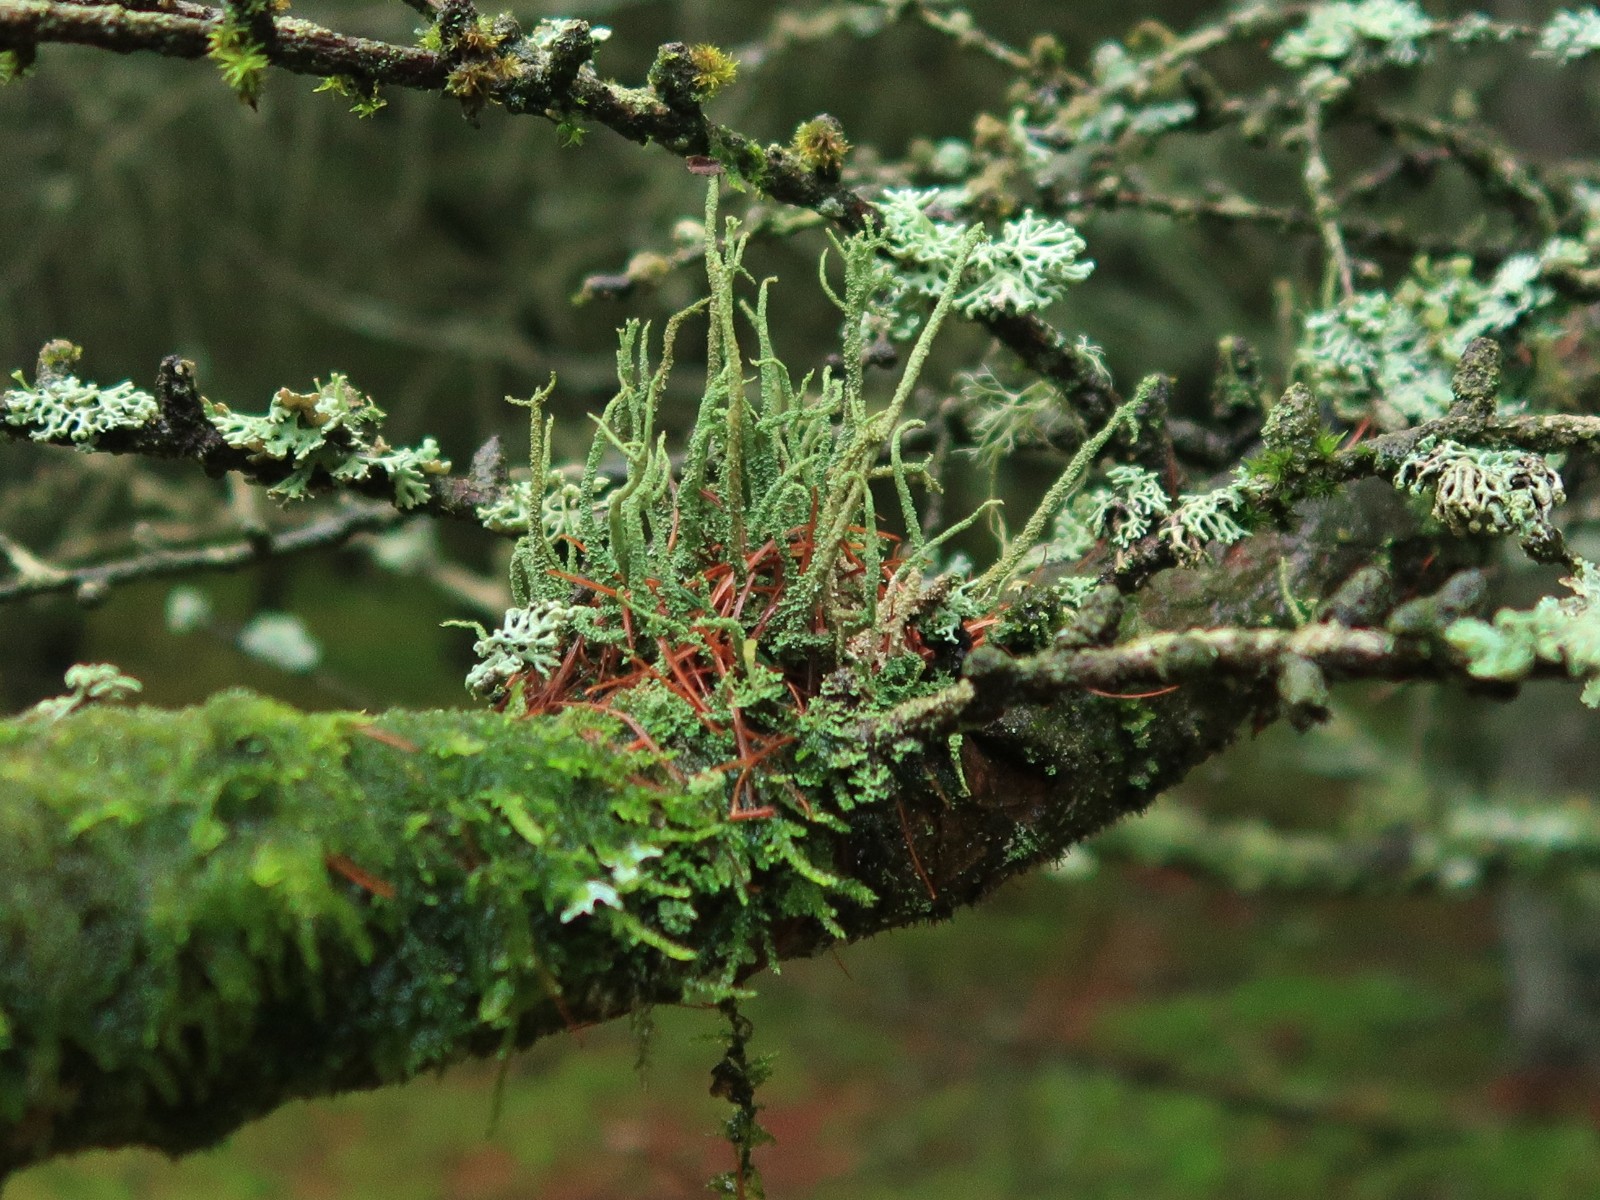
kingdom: Fungi
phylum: Ascomycota
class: Lecanoromycetes
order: Lecanorales
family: Cladoniaceae
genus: Cladonia
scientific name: Cladonia glauca
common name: grågrøn bægerlav
